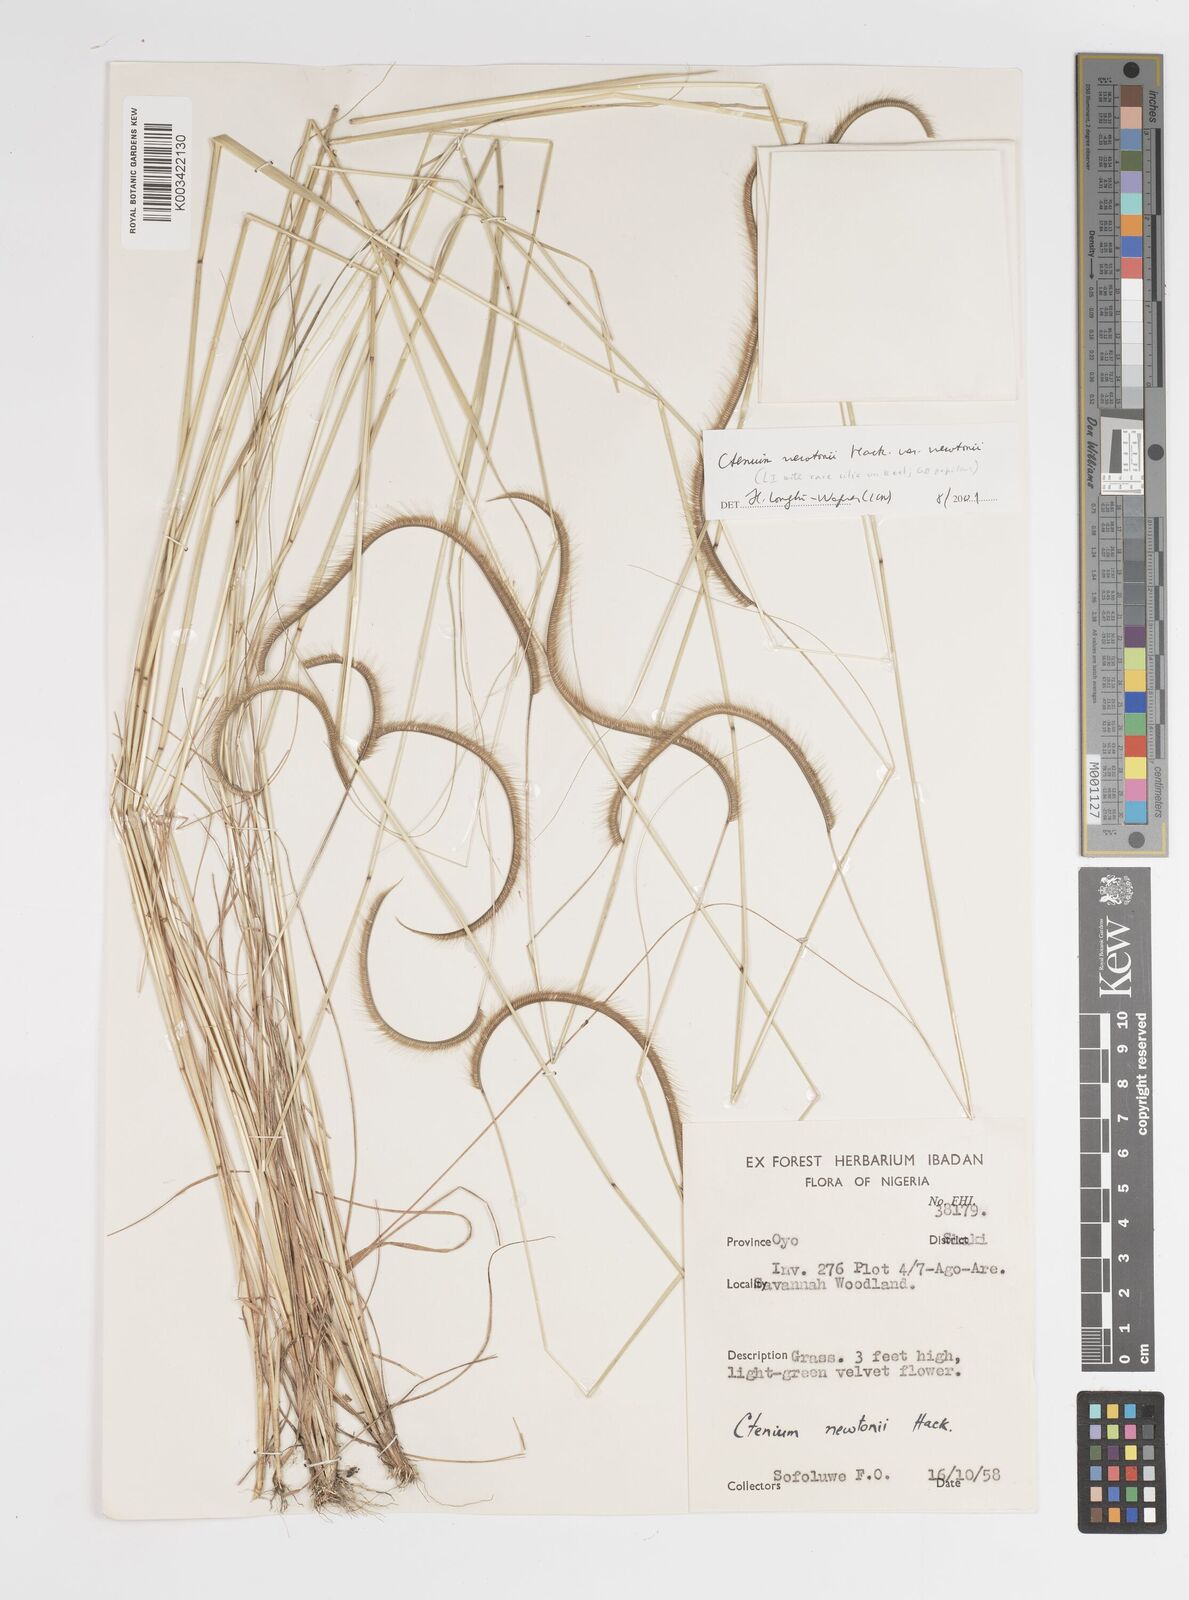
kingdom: Plantae
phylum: Tracheophyta
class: Liliopsida
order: Poales
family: Poaceae
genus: Ctenium
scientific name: Ctenium newtonii
